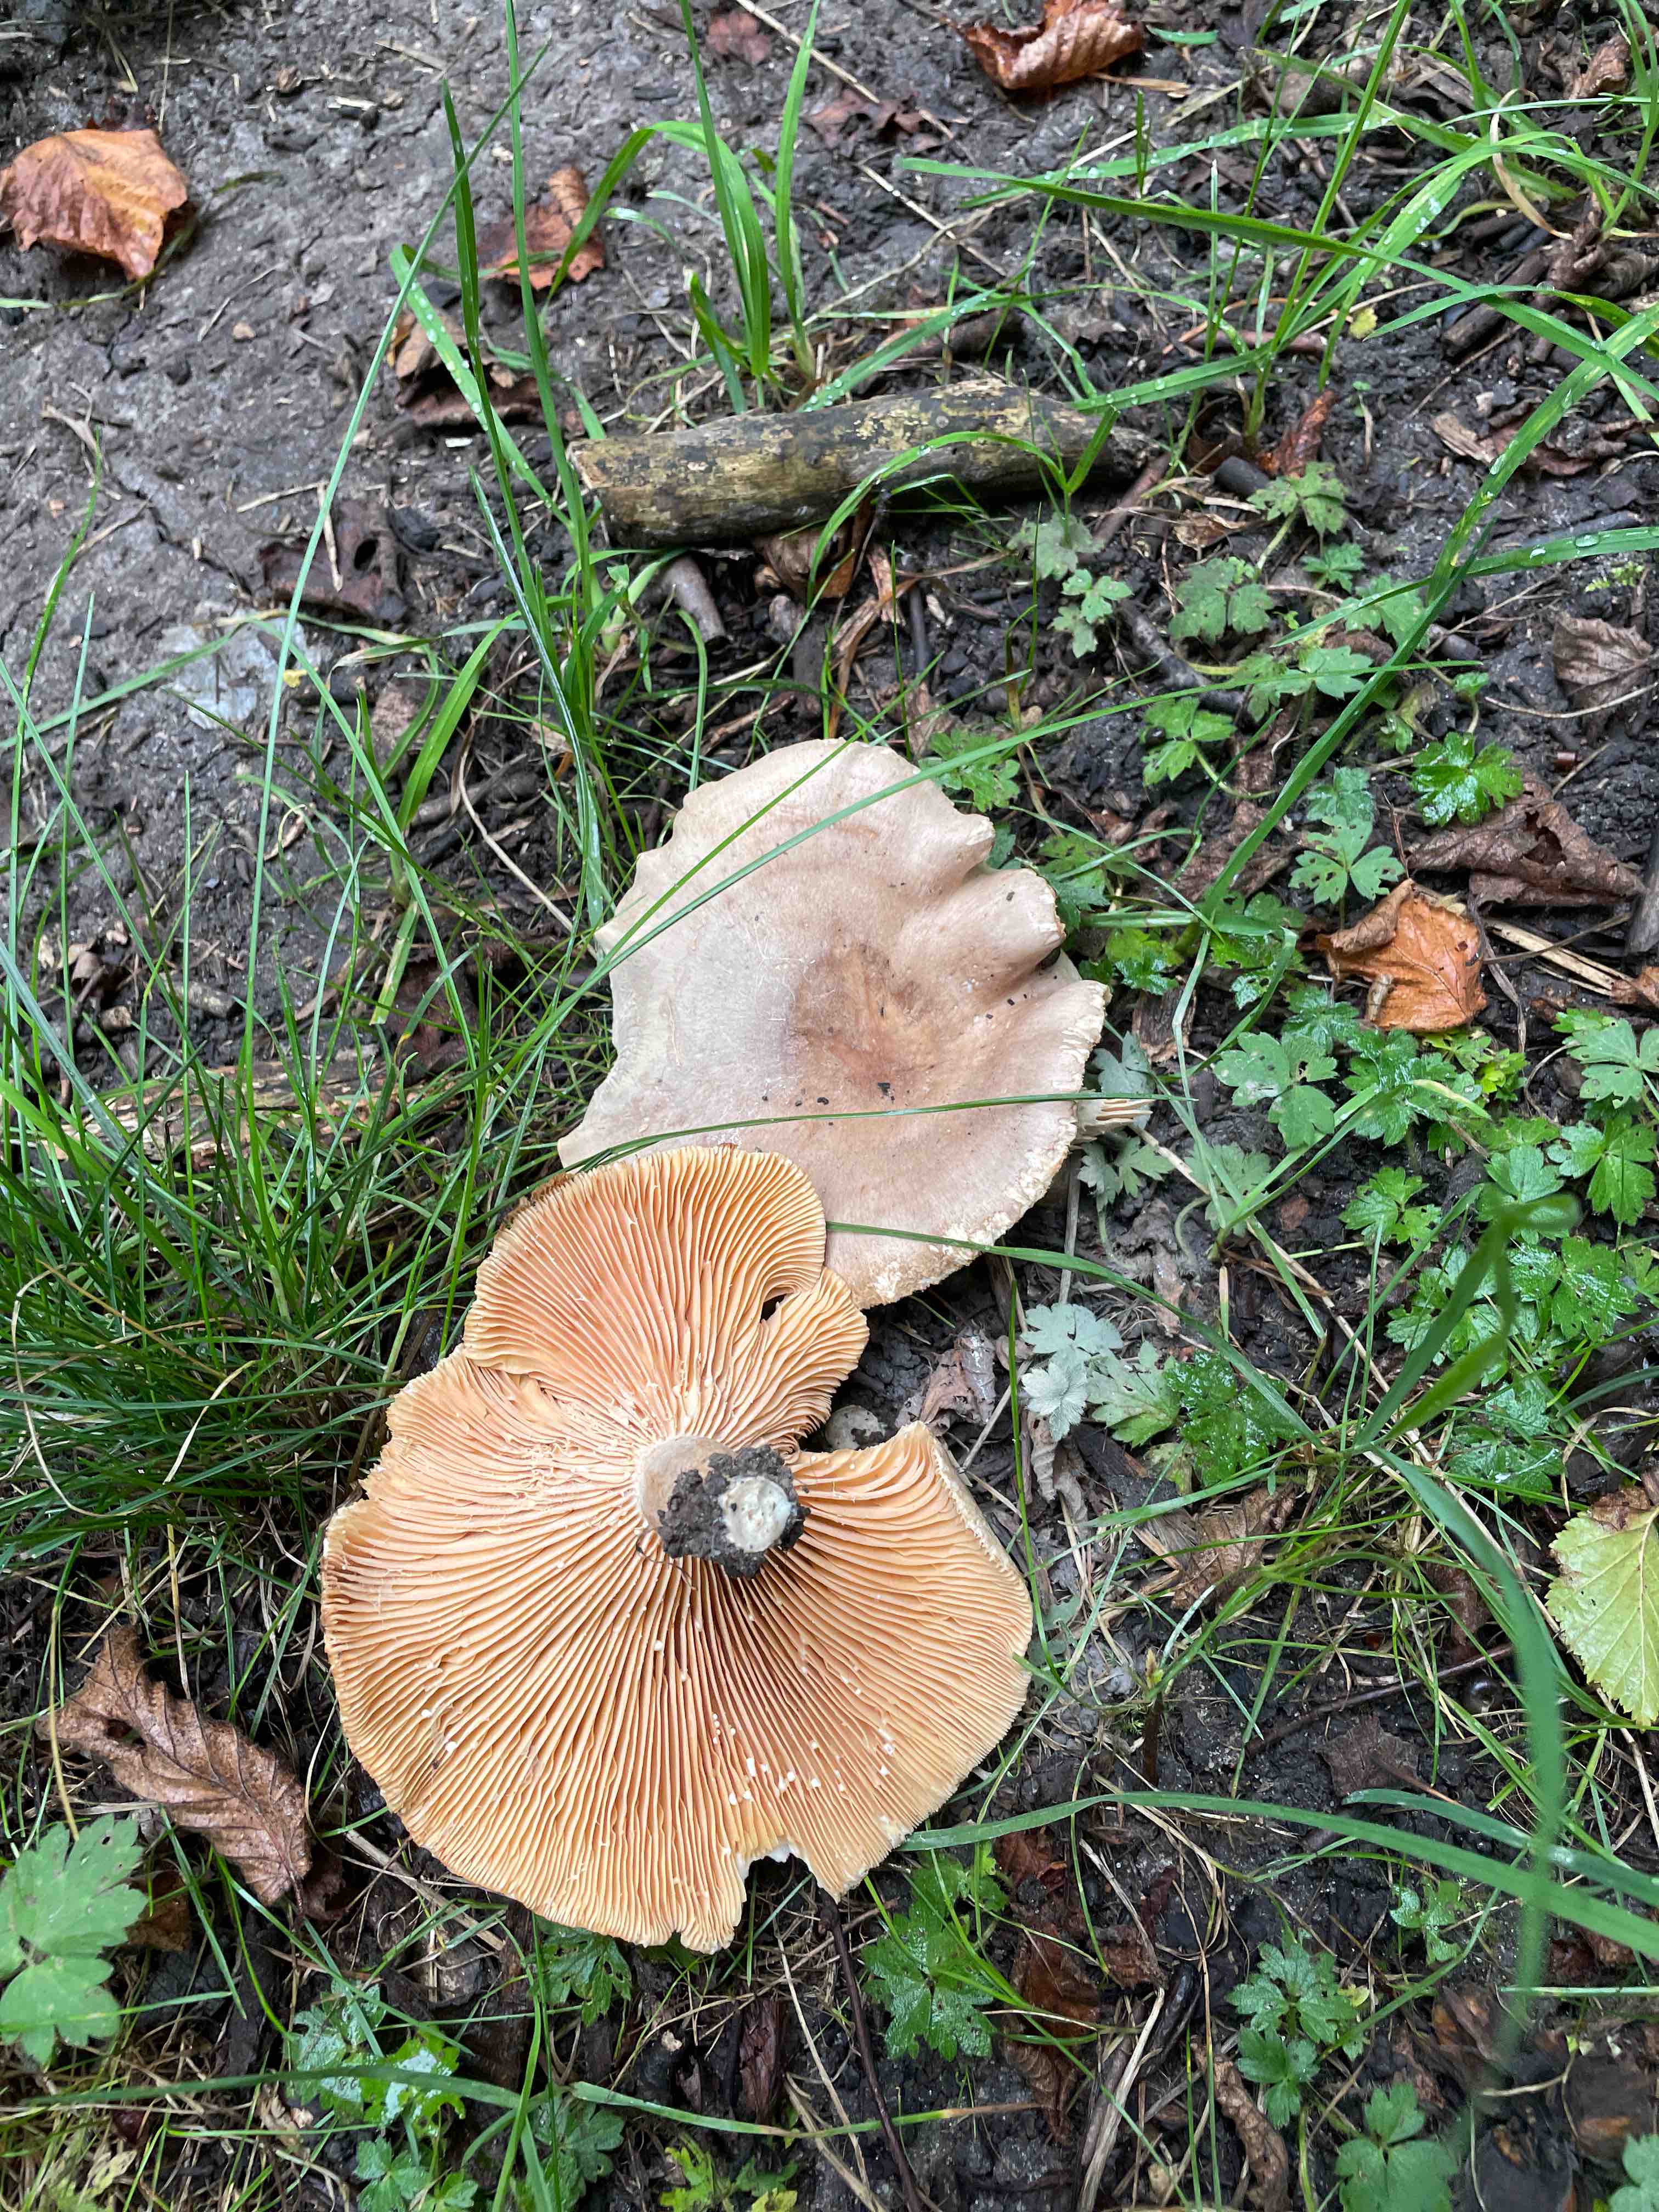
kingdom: Fungi
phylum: Basidiomycota
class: Agaricomycetes
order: Russulales
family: Russulaceae
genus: Lactarius
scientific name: Lactarius pyrogalus
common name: hassel-mælkehat
